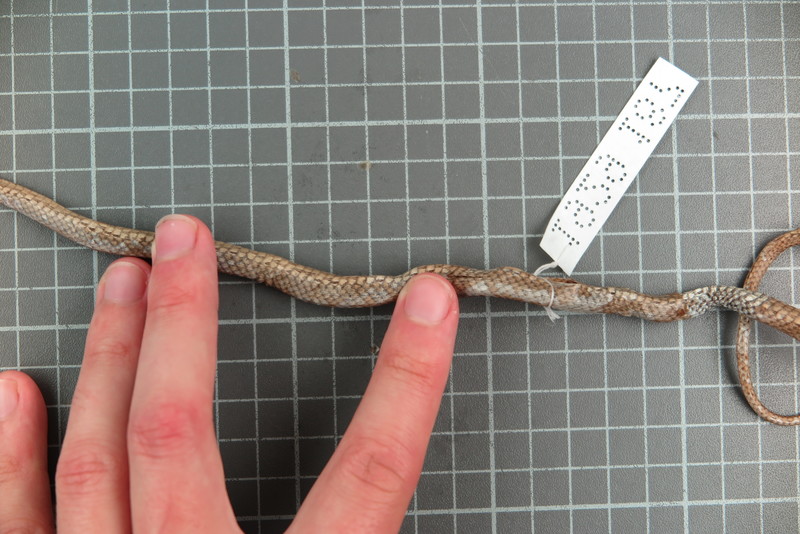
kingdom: Animalia
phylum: Chordata
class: Squamata
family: Psammophiidae
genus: Mimophis
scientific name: Mimophis
